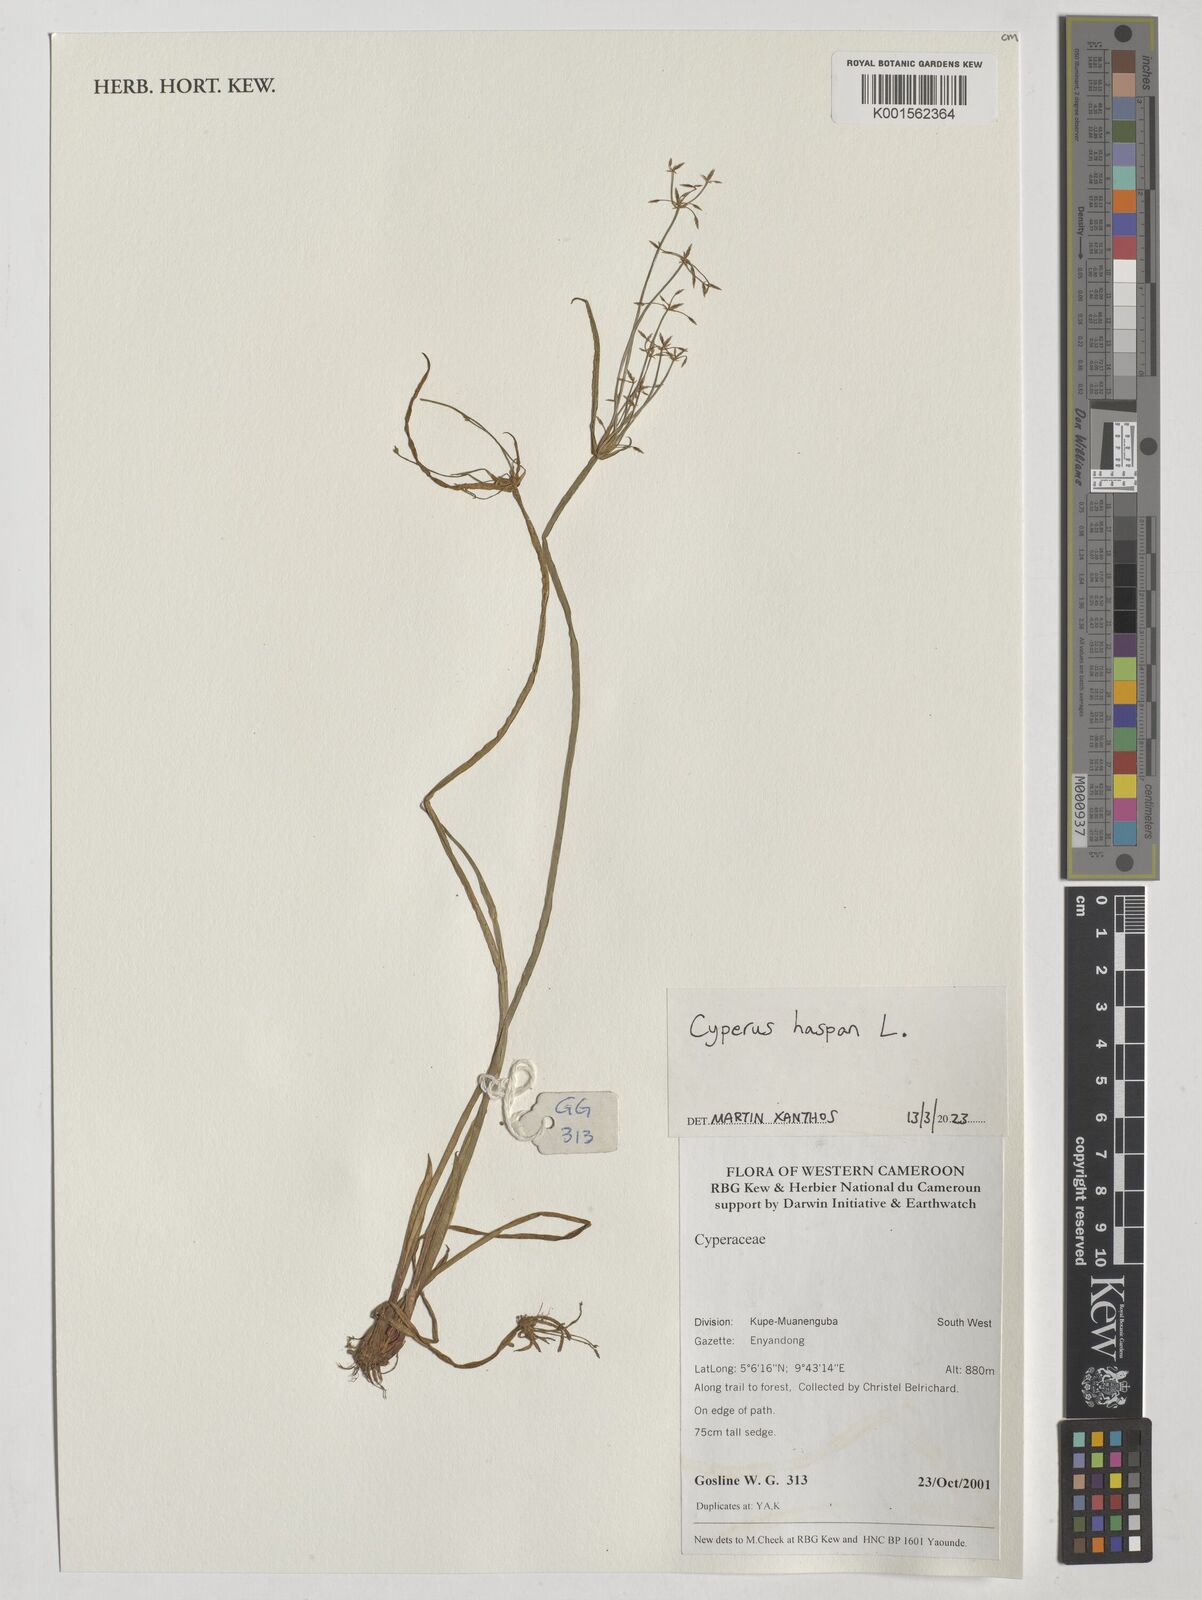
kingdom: Plantae
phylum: Tracheophyta
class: Liliopsida
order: Poales
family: Cyperaceae
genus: Cyperus
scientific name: Cyperus haspan
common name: Haspan flatsedge
